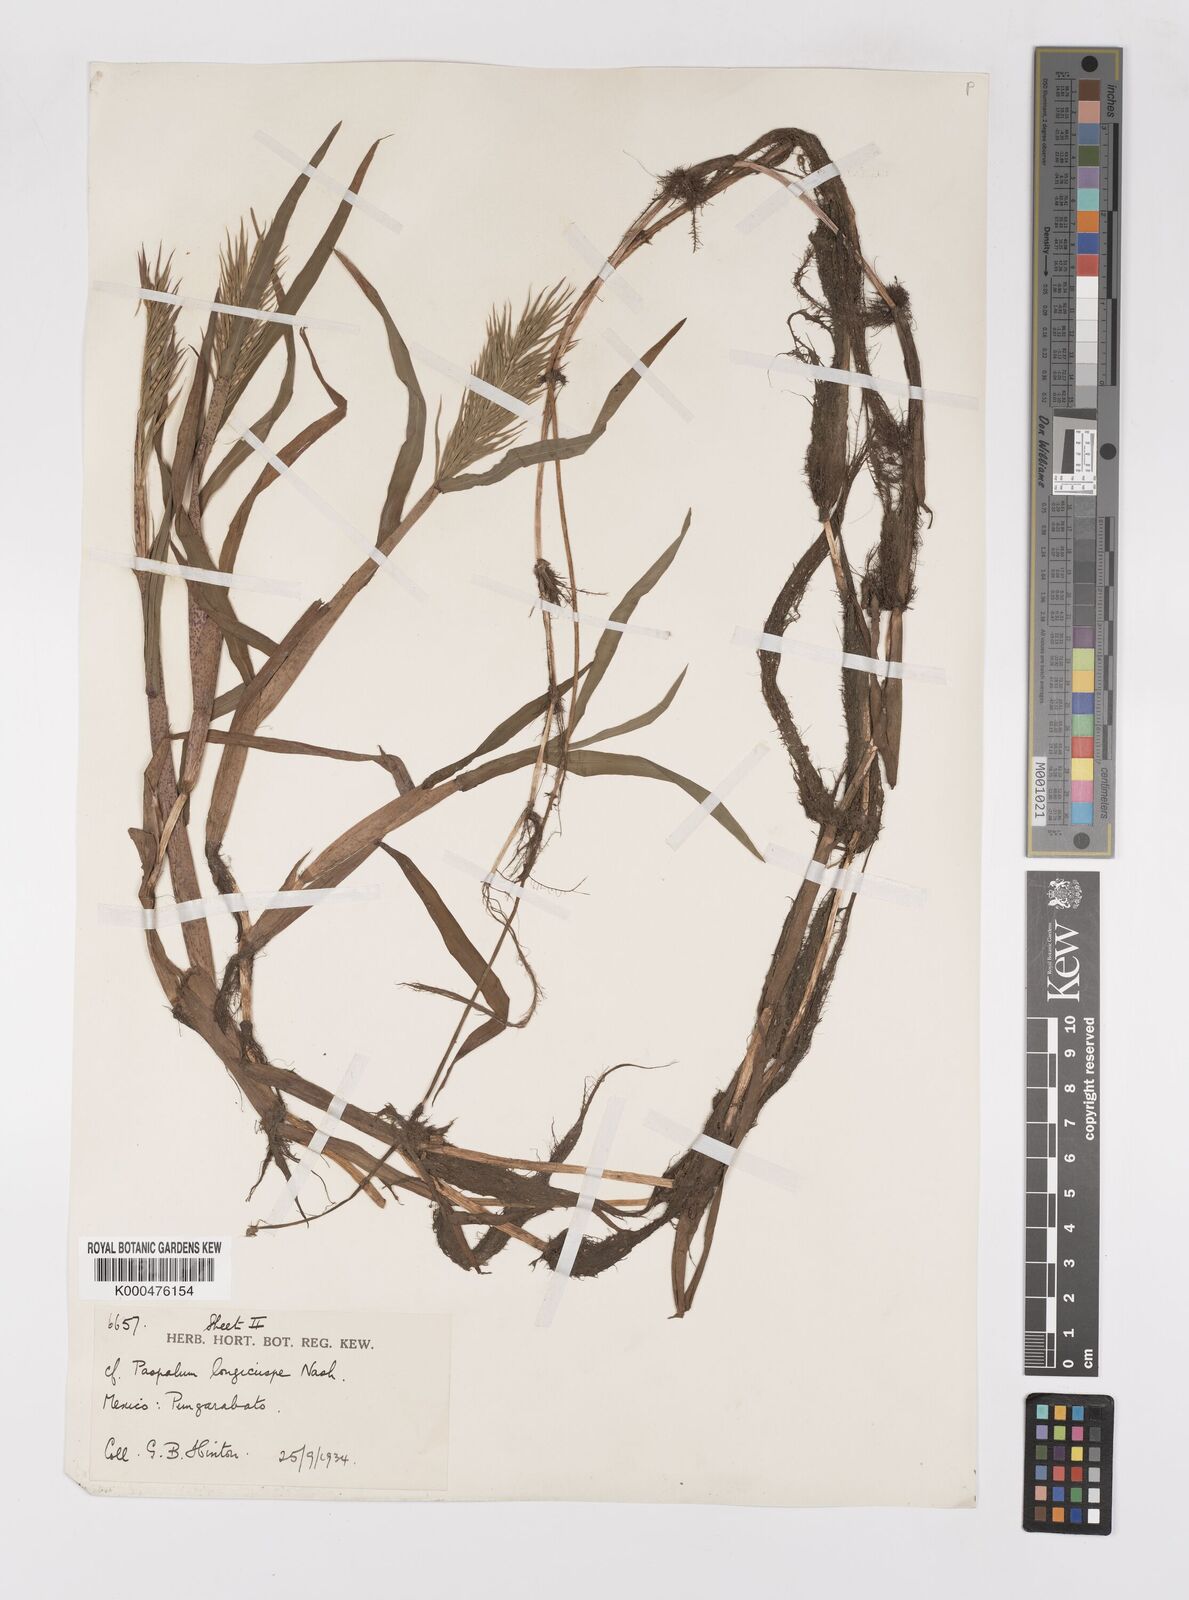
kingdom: Plantae
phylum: Tracheophyta
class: Liliopsida
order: Poales
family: Poaceae
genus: Paspalum
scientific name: Paspalum
